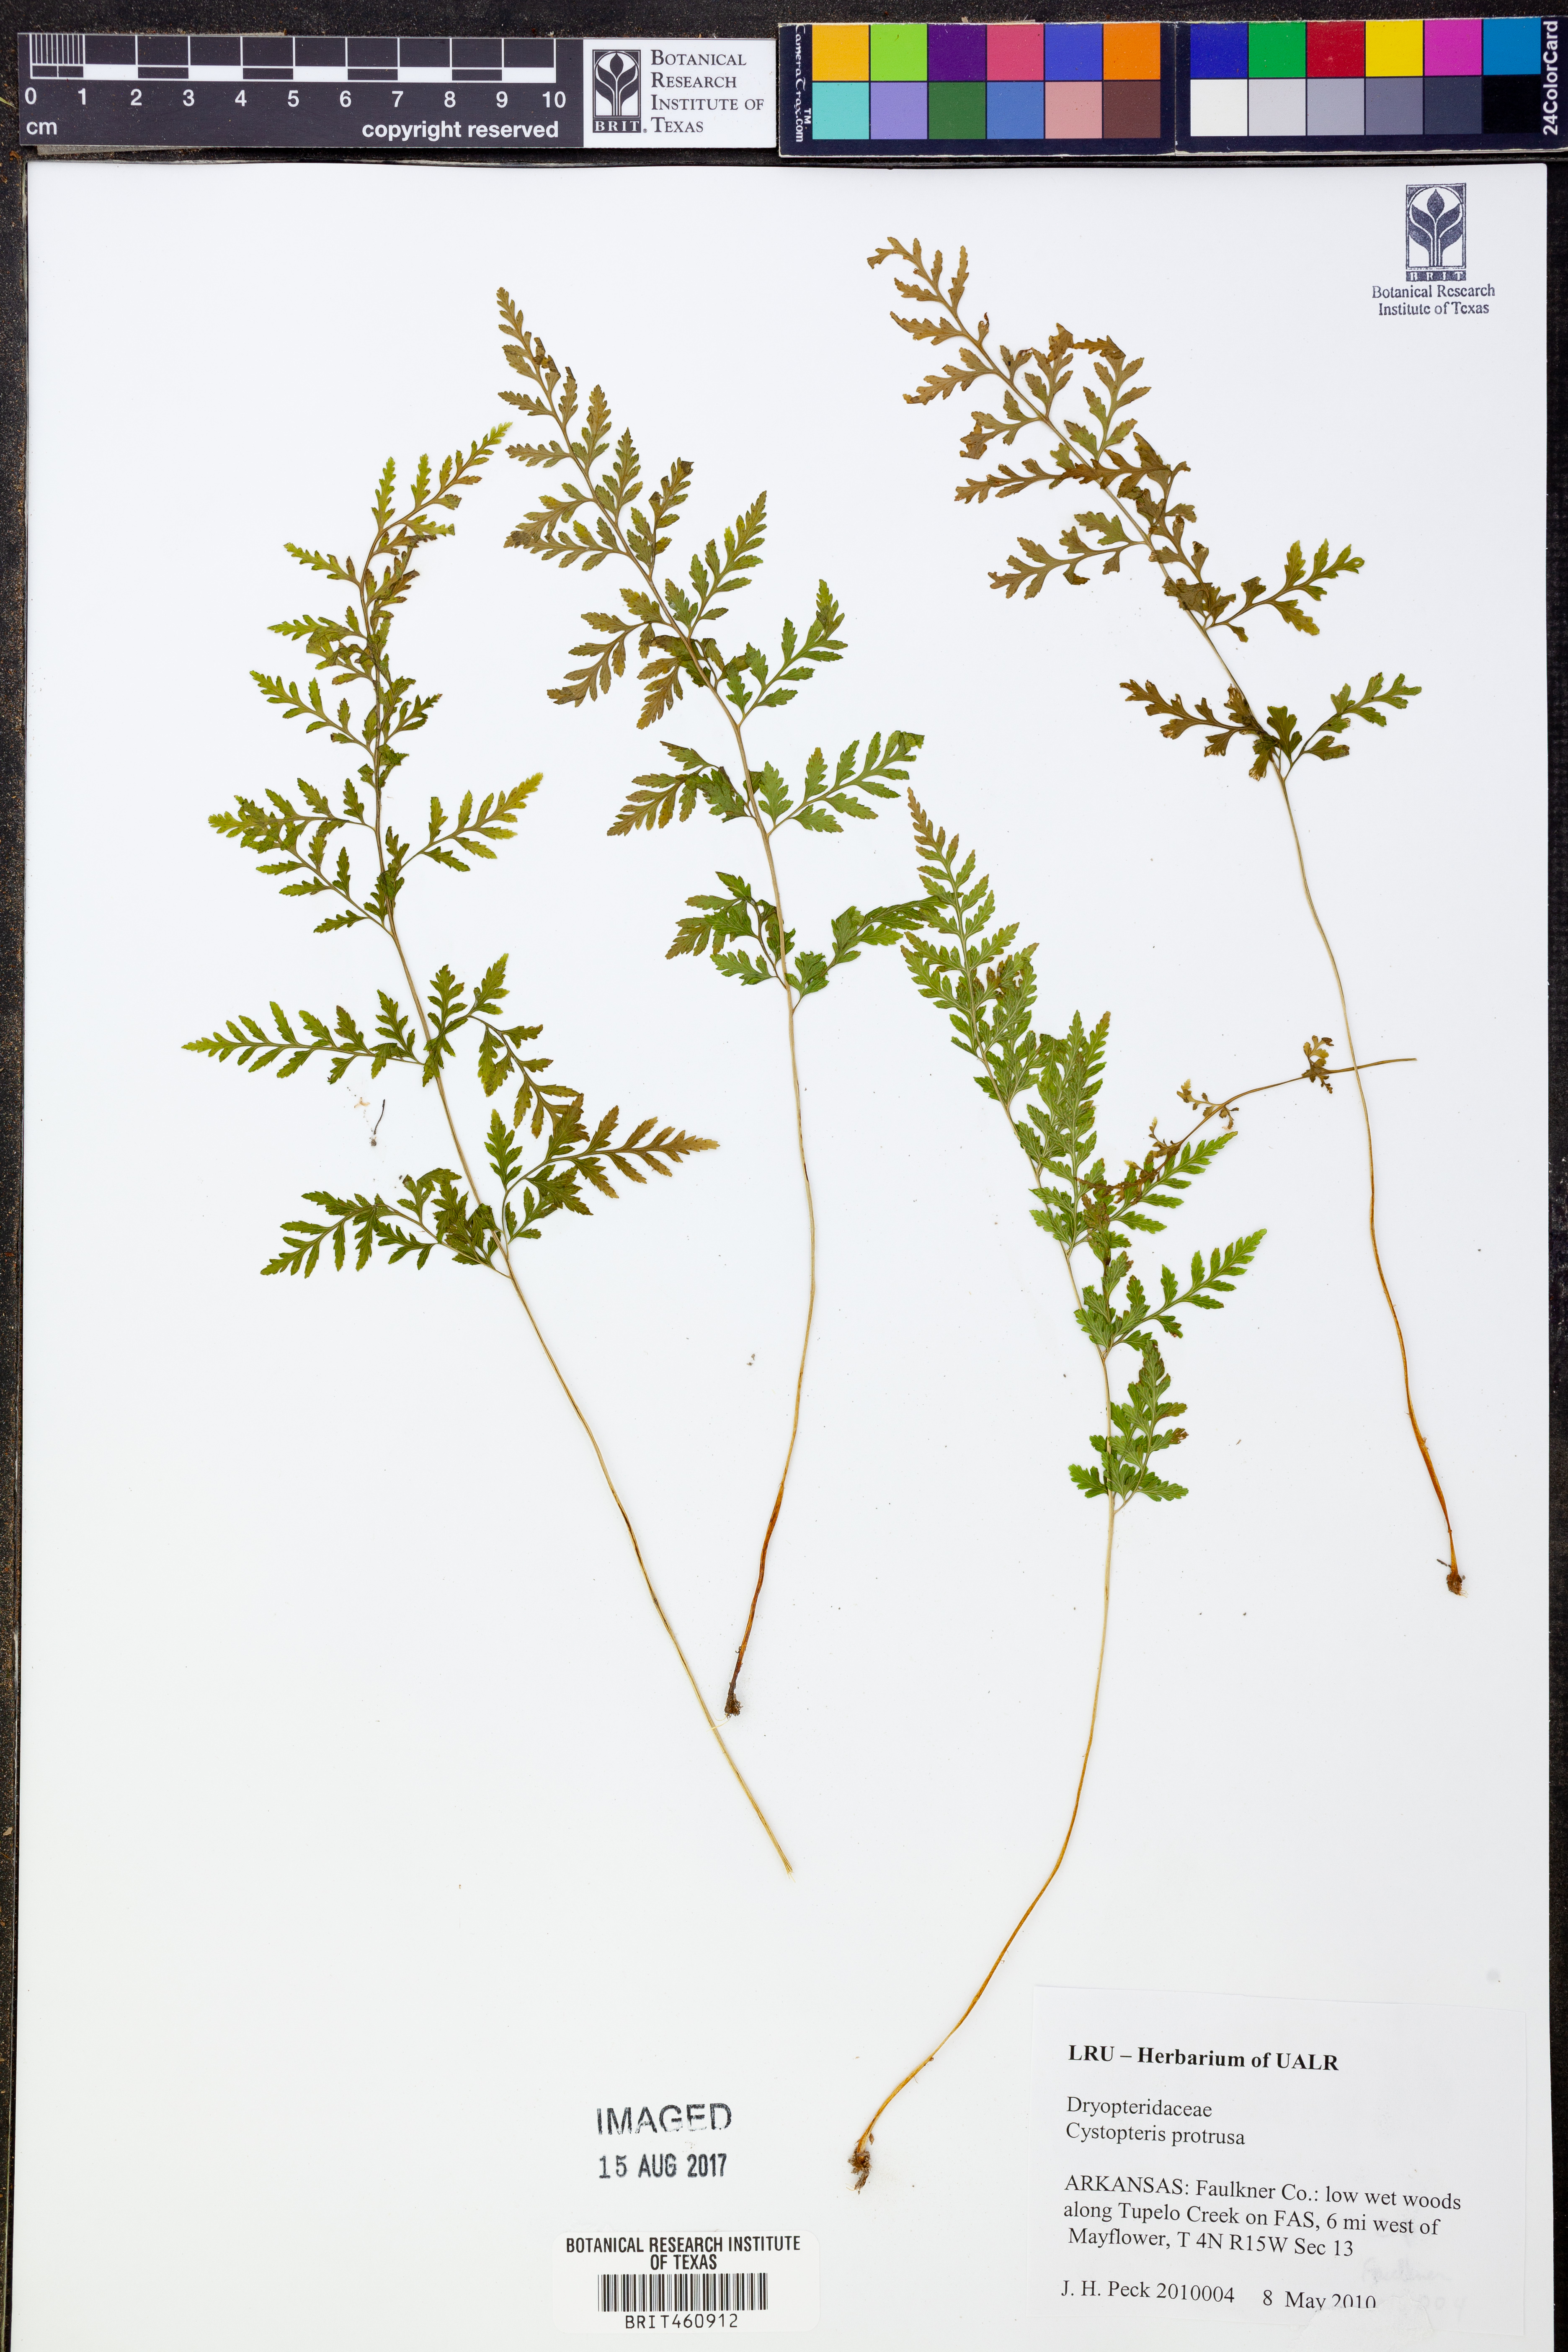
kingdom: Plantae
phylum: Tracheophyta
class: Polypodiopsida
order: Polypodiales
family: Cystopteridaceae
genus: Cystopteris
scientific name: Cystopteris protrusa
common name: Lowland brittle fern
